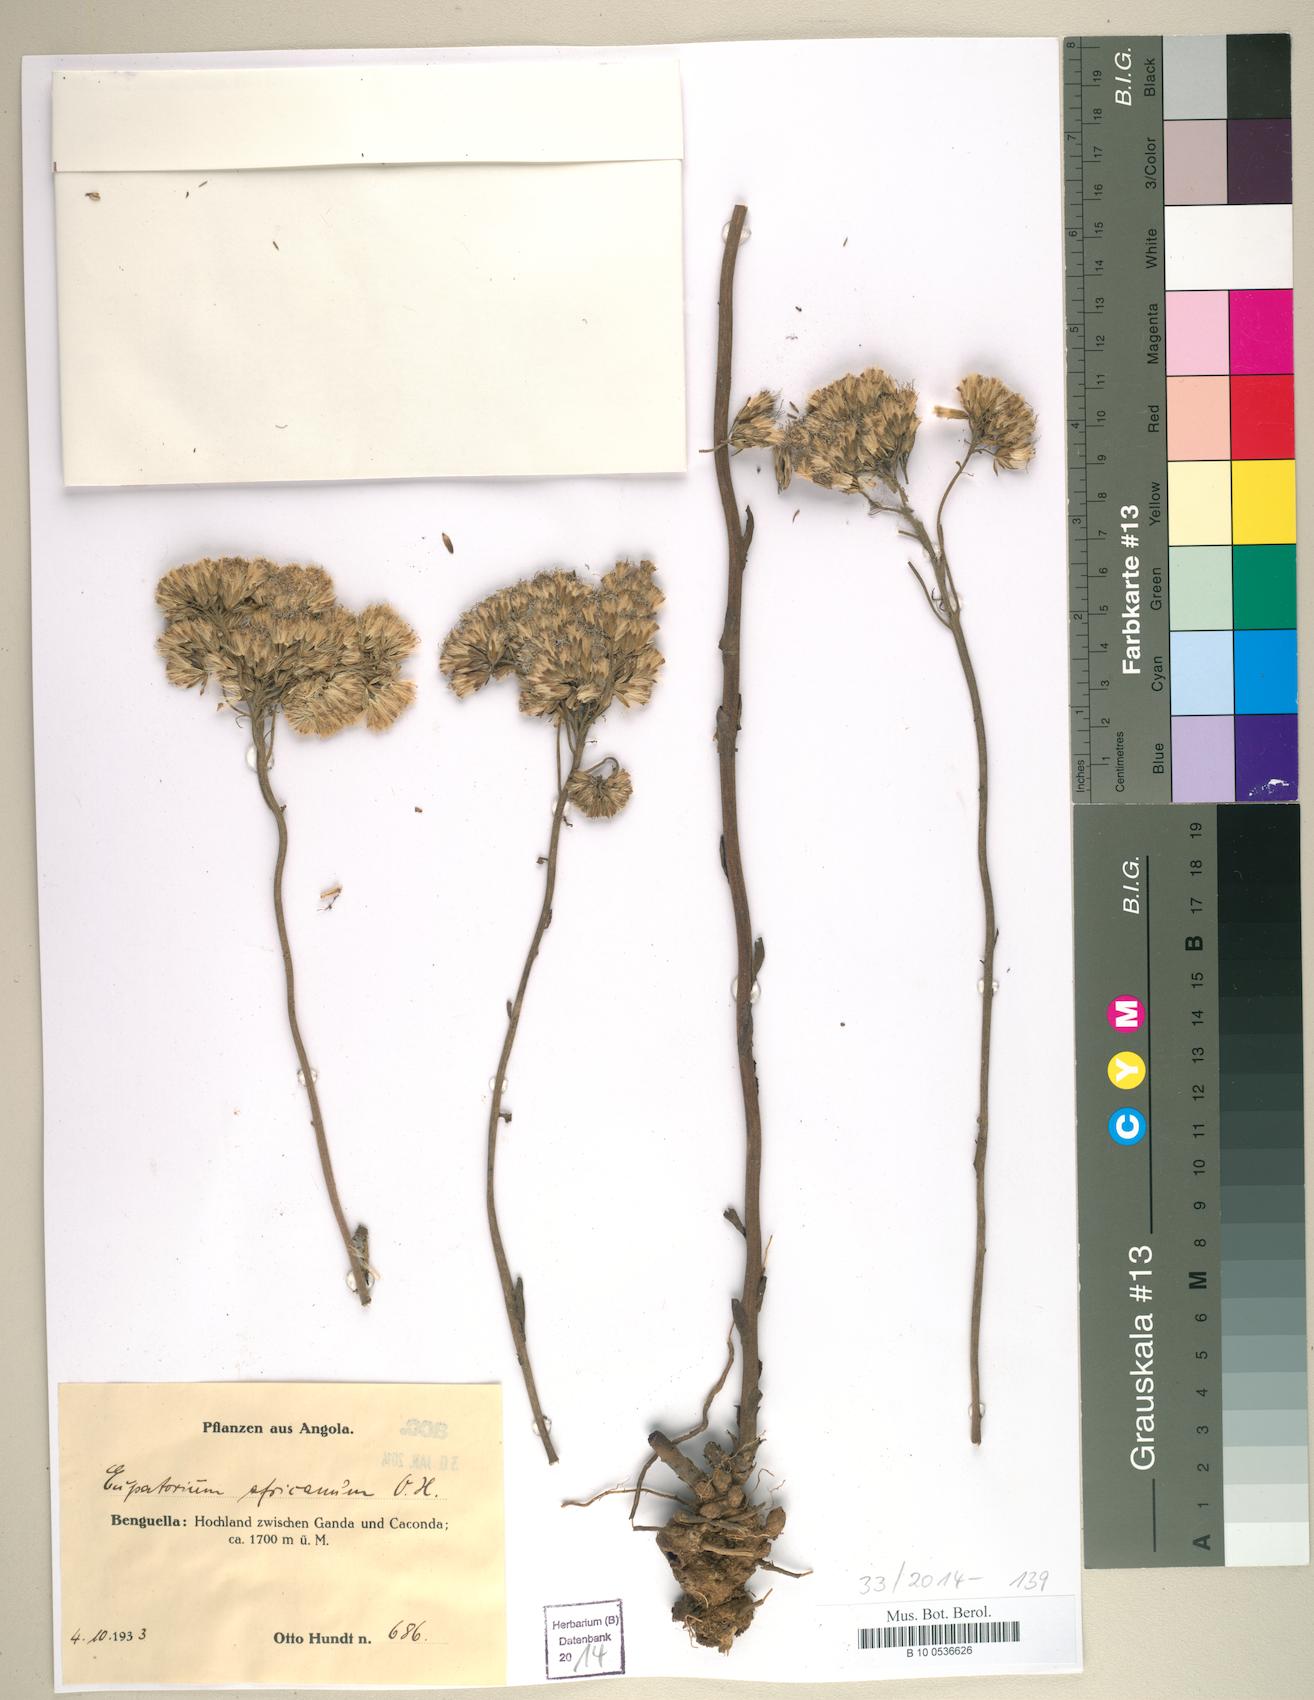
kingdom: Plantae
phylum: Tracheophyta
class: Magnoliopsida
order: Asterales
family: Asteraceae
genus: Stomatanthes
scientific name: Stomatanthes africanus
